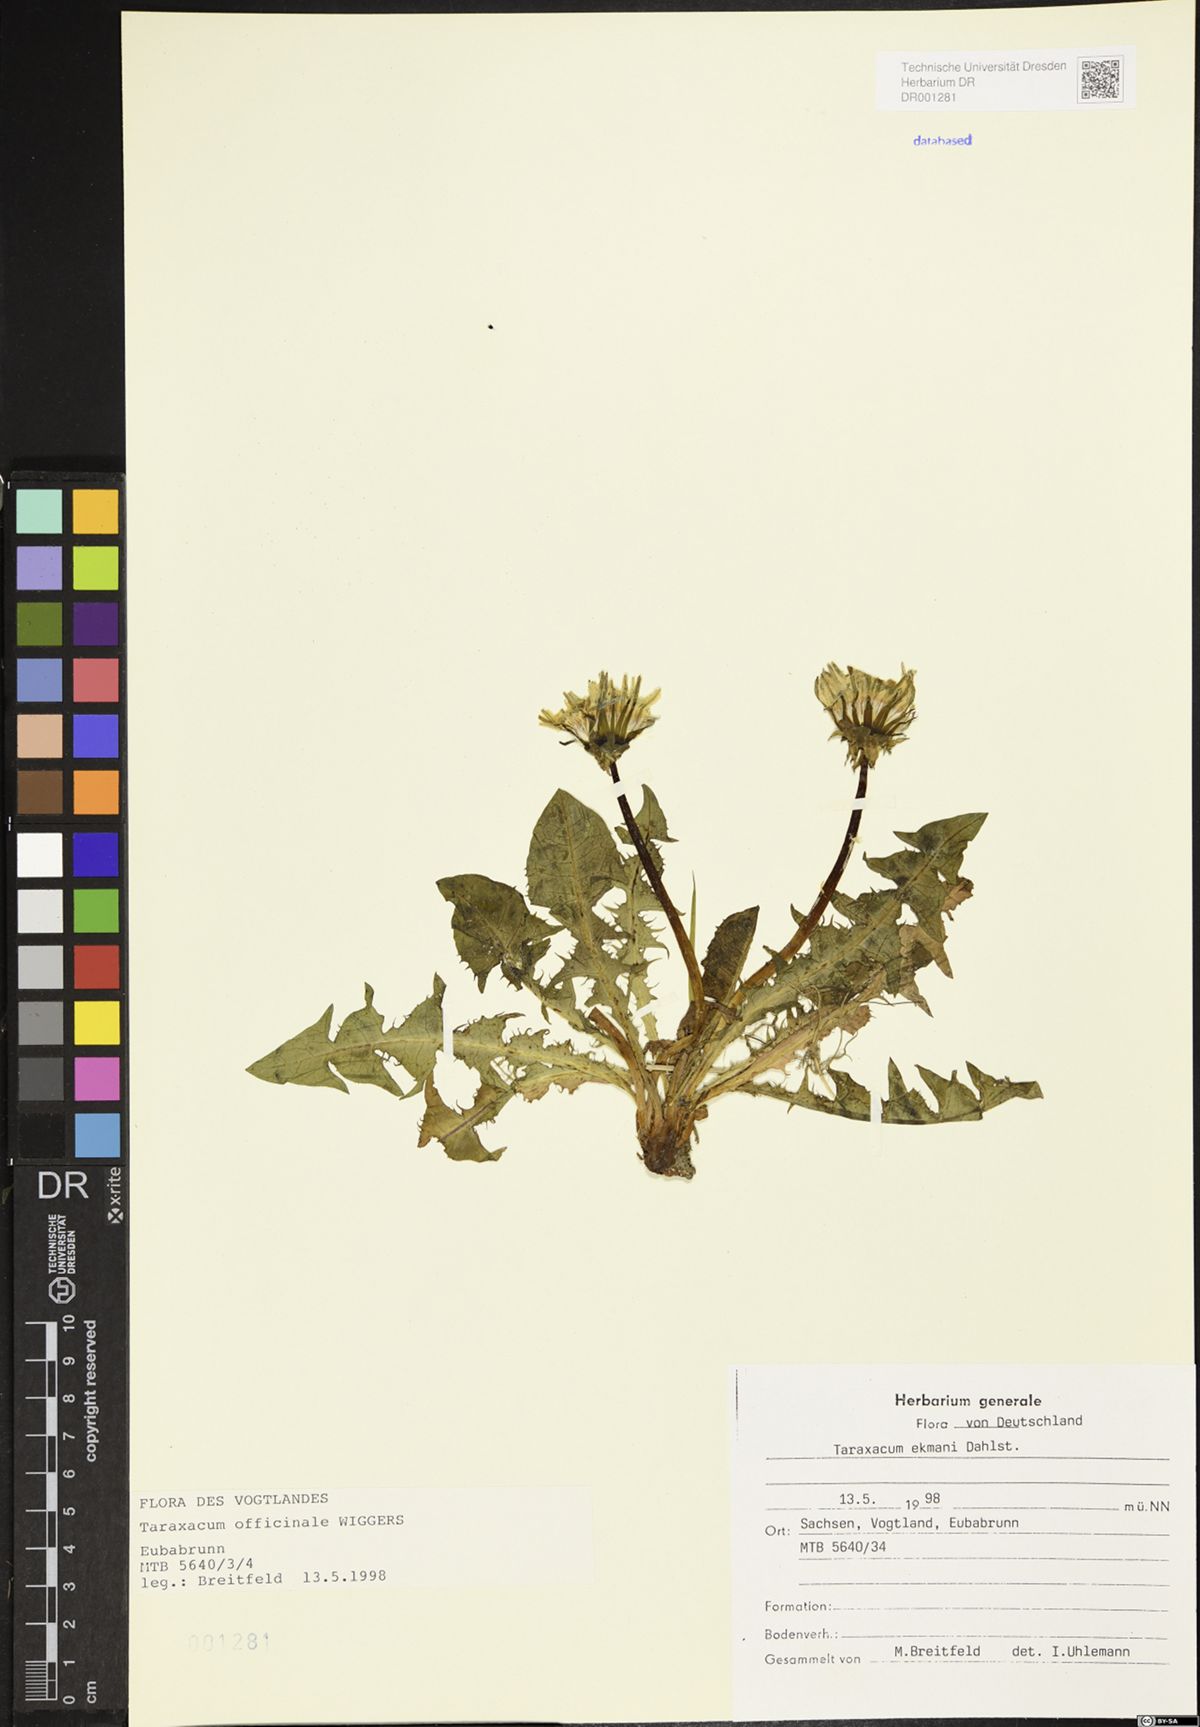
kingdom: Plantae
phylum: Tracheophyta
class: Magnoliopsida
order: Asterales
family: Asteraceae
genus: Taraxacum
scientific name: Taraxacum ekmanii
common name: Ekman's dandelion
